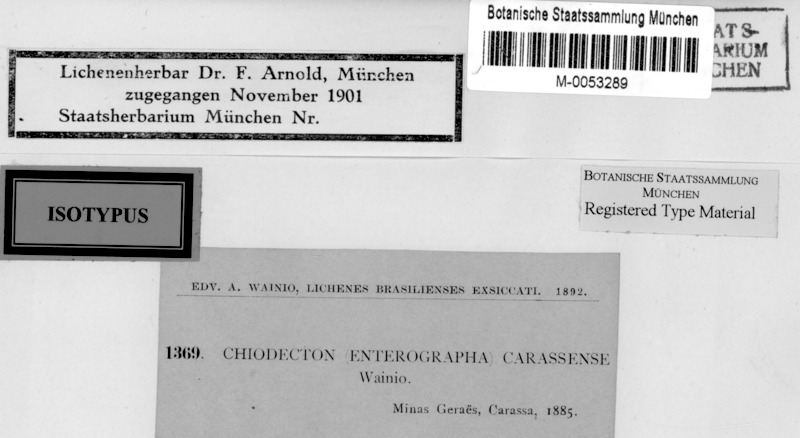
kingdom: Fungi
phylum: Ascomycota
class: Arthoniomycetes
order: Arthoniales
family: Roccellaceae
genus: Enterographa
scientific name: Enterographa
